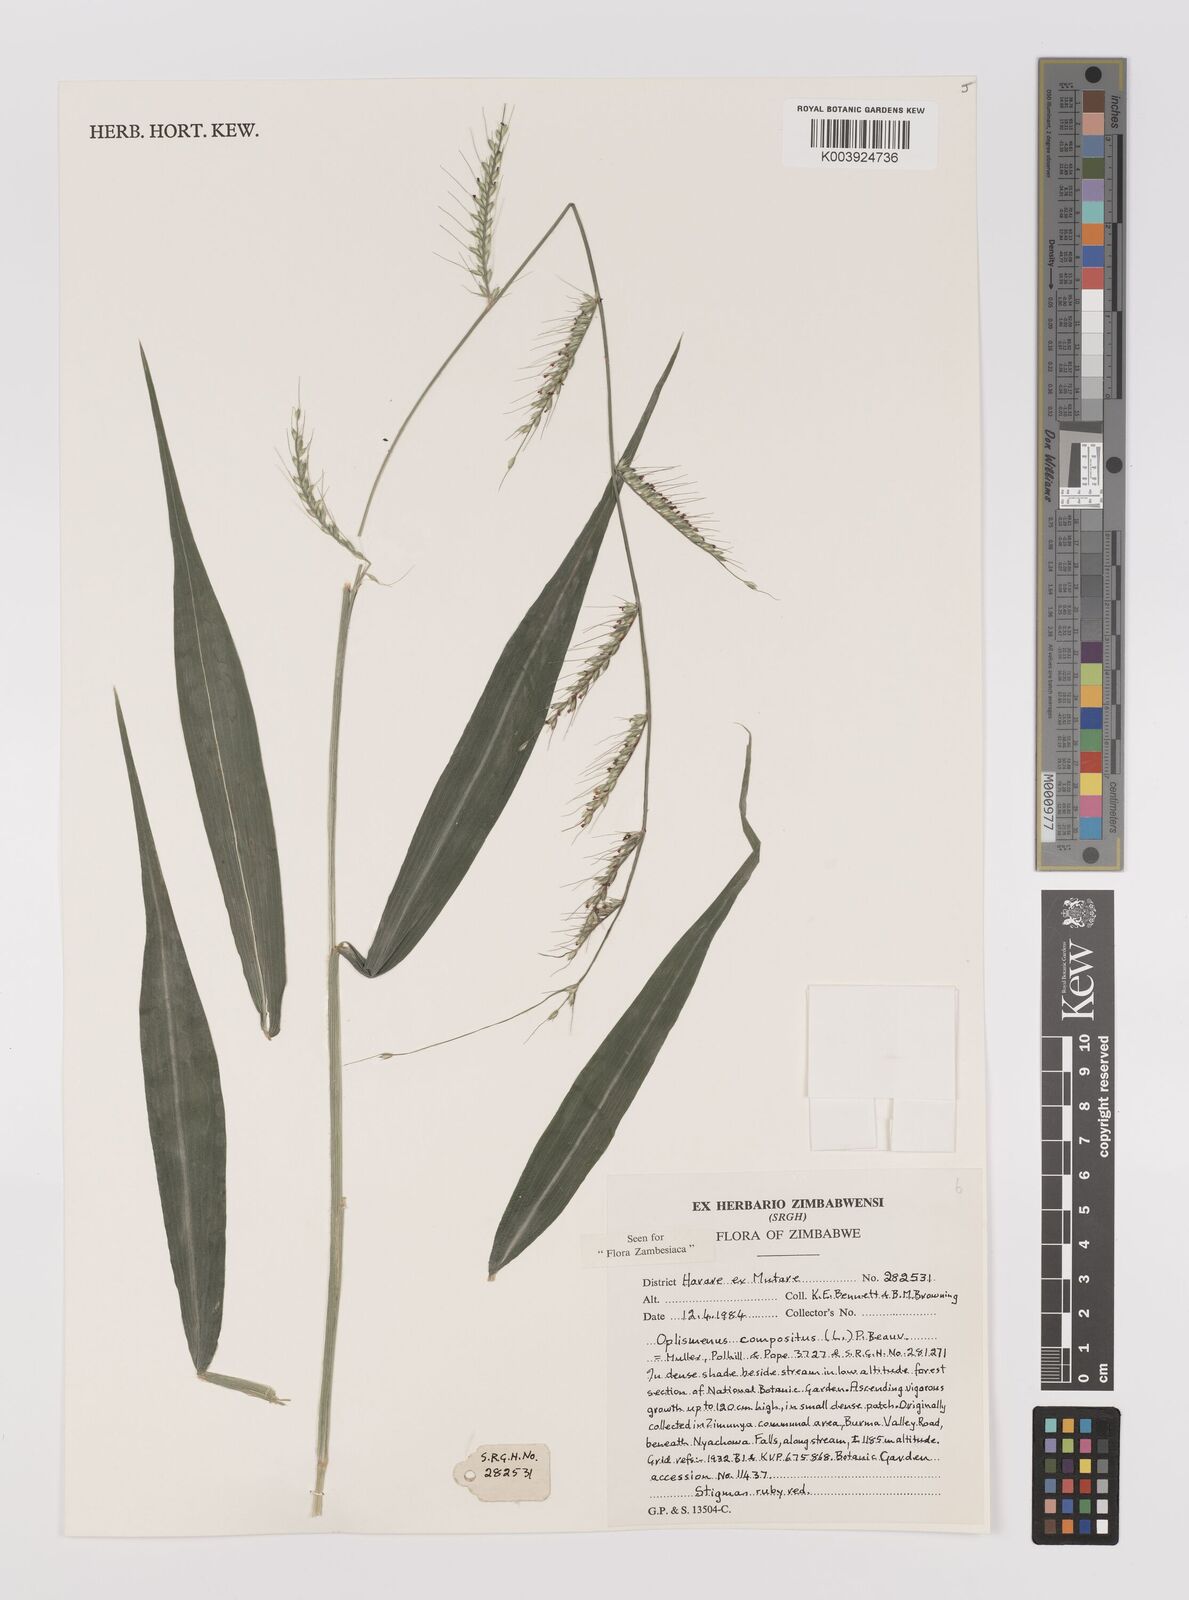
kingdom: Plantae
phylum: Tracheophyta
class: Liliopsida
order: Poales
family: Poaceae
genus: Oplismenus
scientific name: Oplismenus compositus
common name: Running mountain grass
